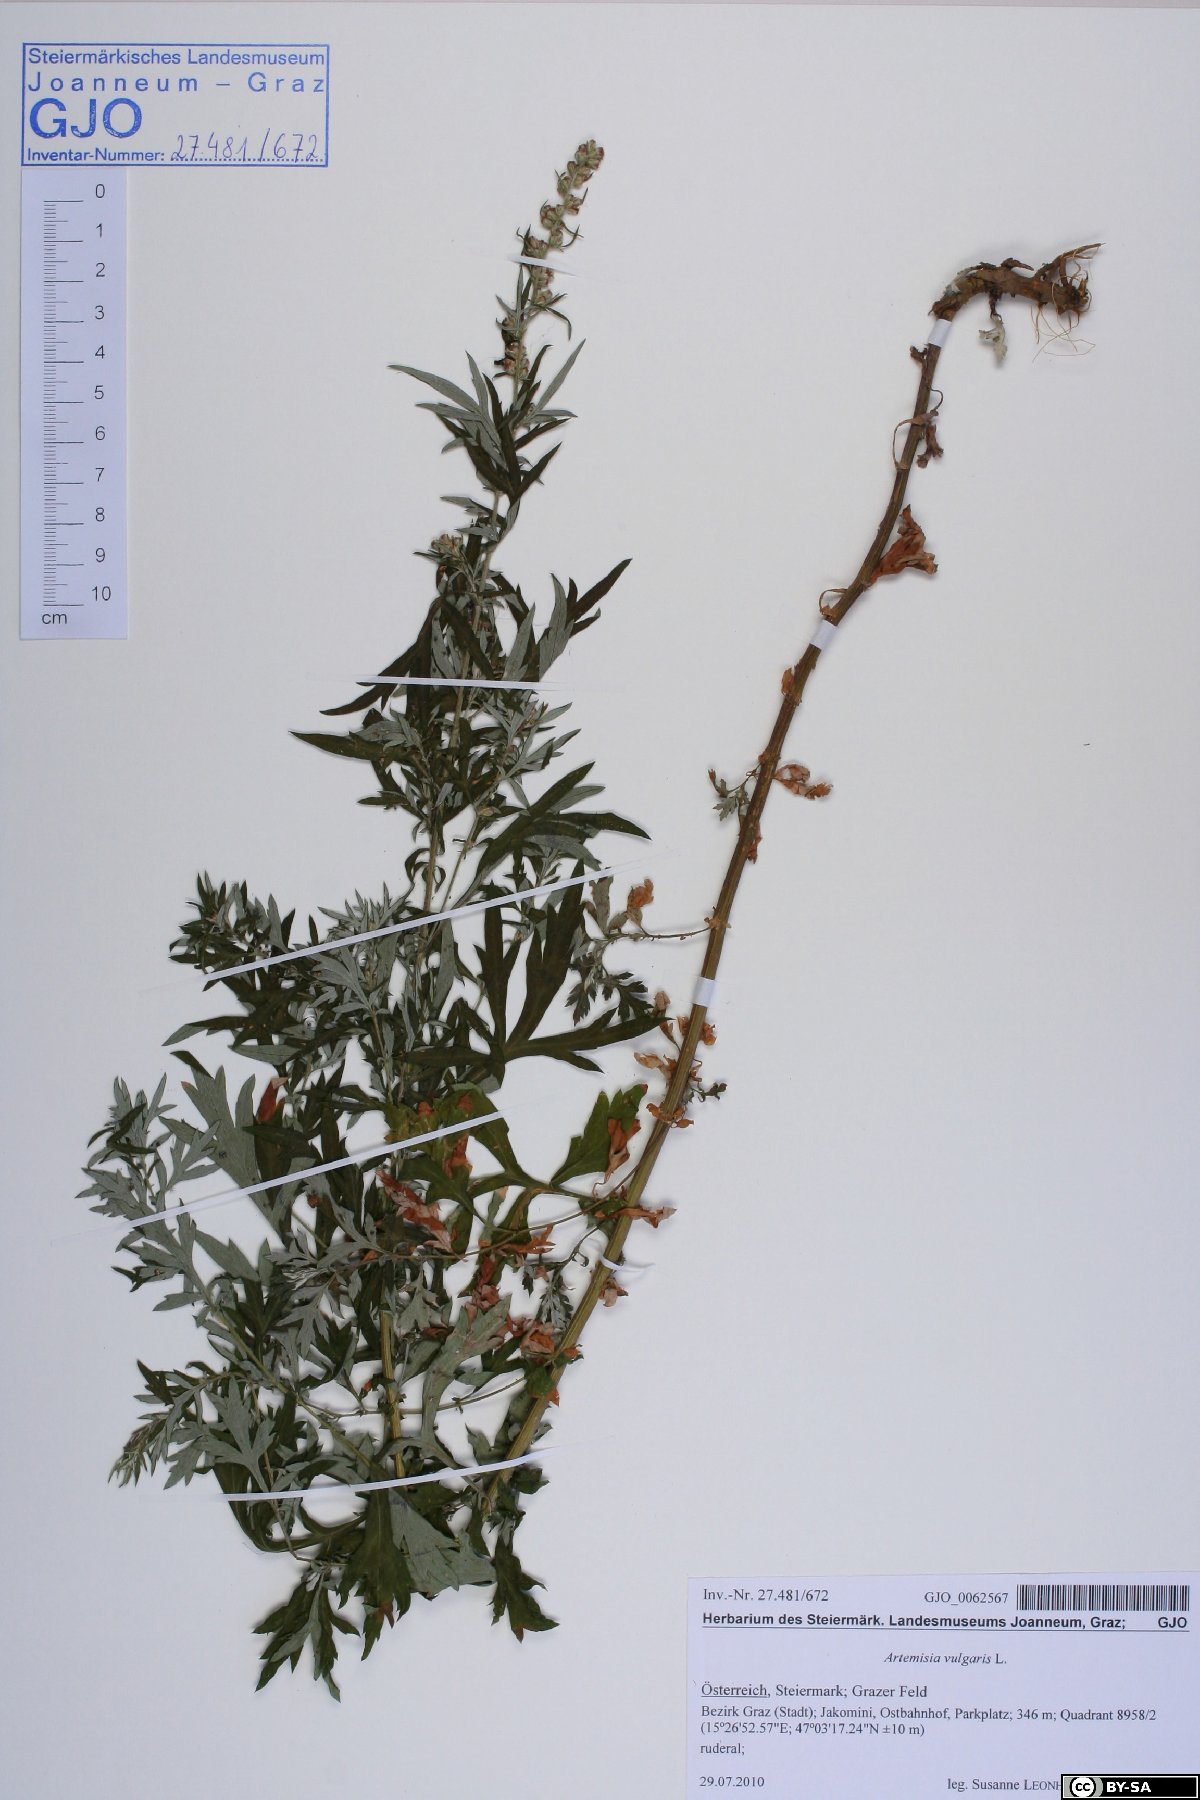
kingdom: Plantae
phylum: Tracheophyta
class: Magnoliopsida
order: Asterales
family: Asteraceae
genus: Artemisia
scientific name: Artemisia vulgaris
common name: Mugwort
